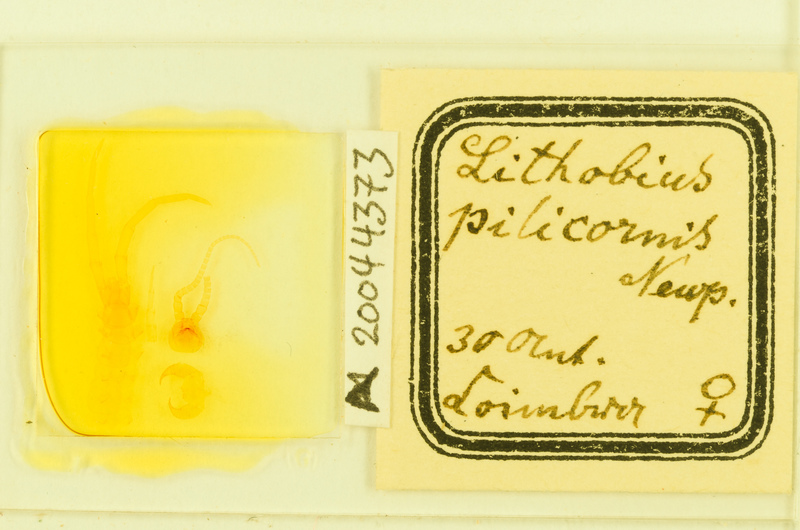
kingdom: Animalia
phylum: Arthropoda
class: Chilopoda
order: Lithobiomorpha
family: Lithobiidae
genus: Lithobius
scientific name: Lithobius pilicornis
